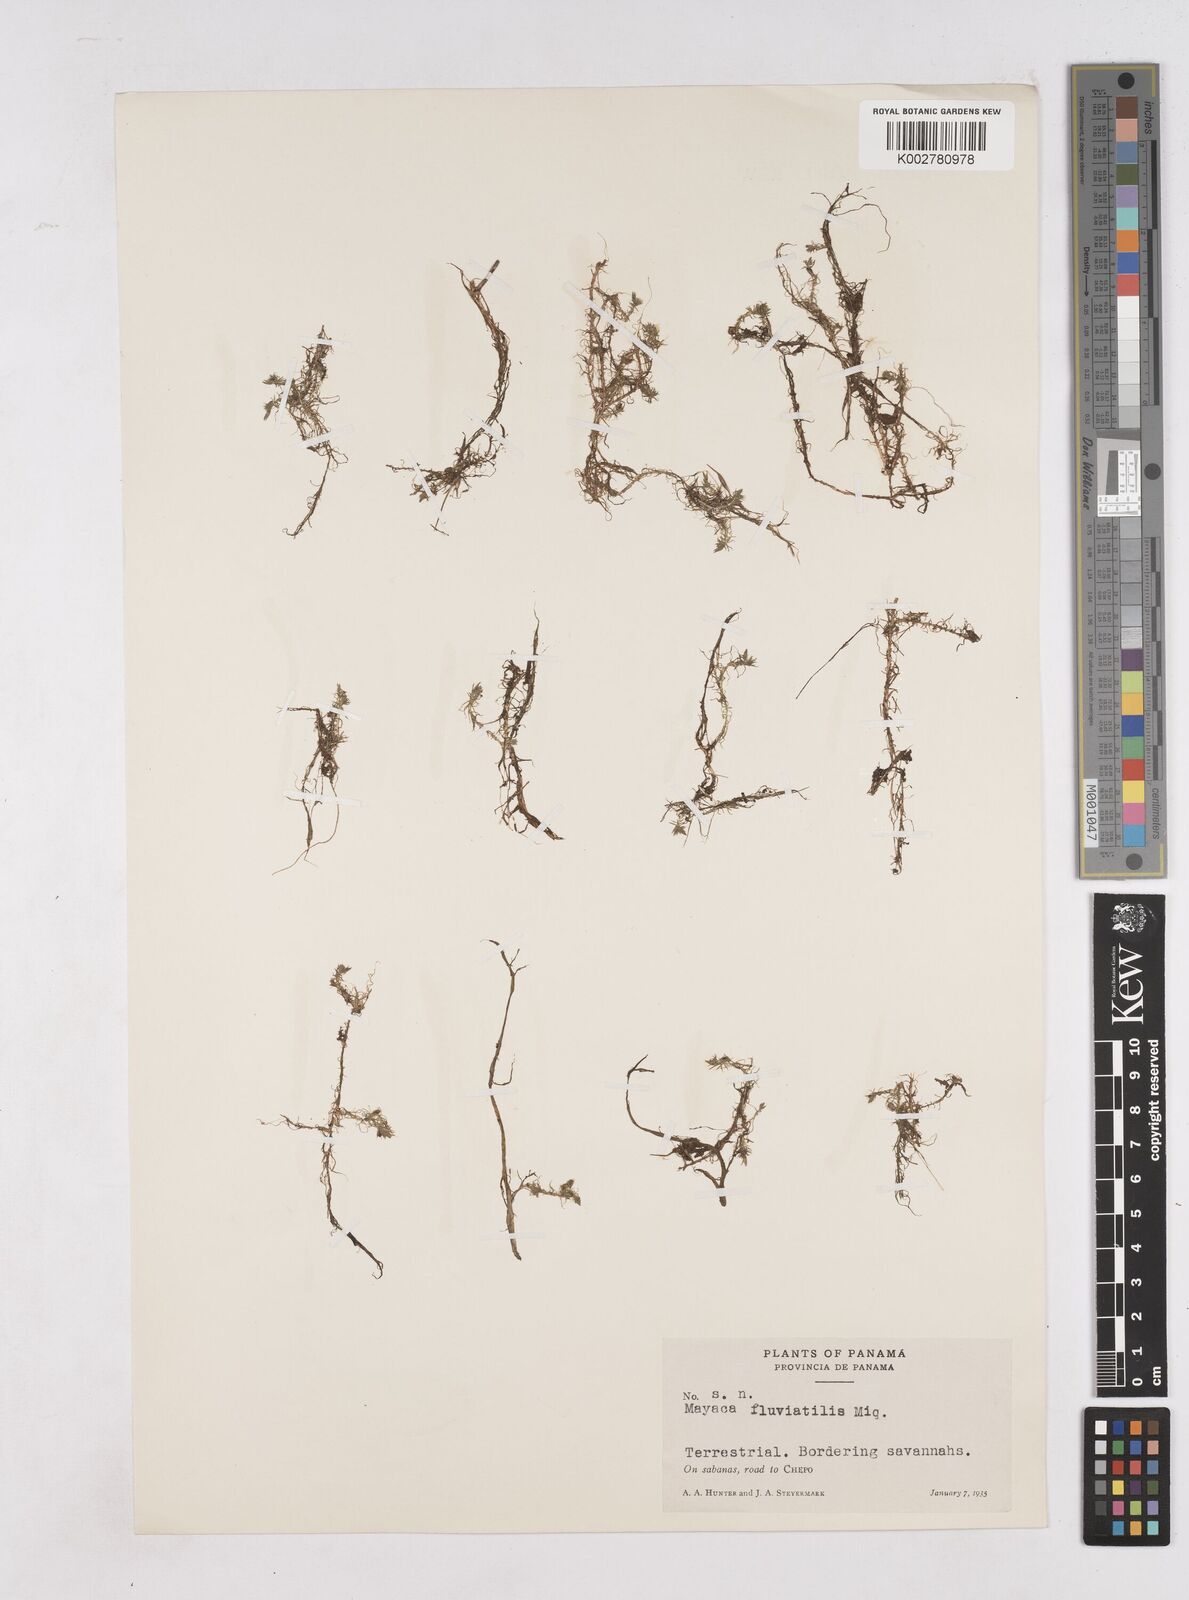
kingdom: Plantae
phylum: Tracheophyta
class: Liliopsida
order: Poales
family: Mayacaceae
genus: Mayaca
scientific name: Mayaca fluviatilis
